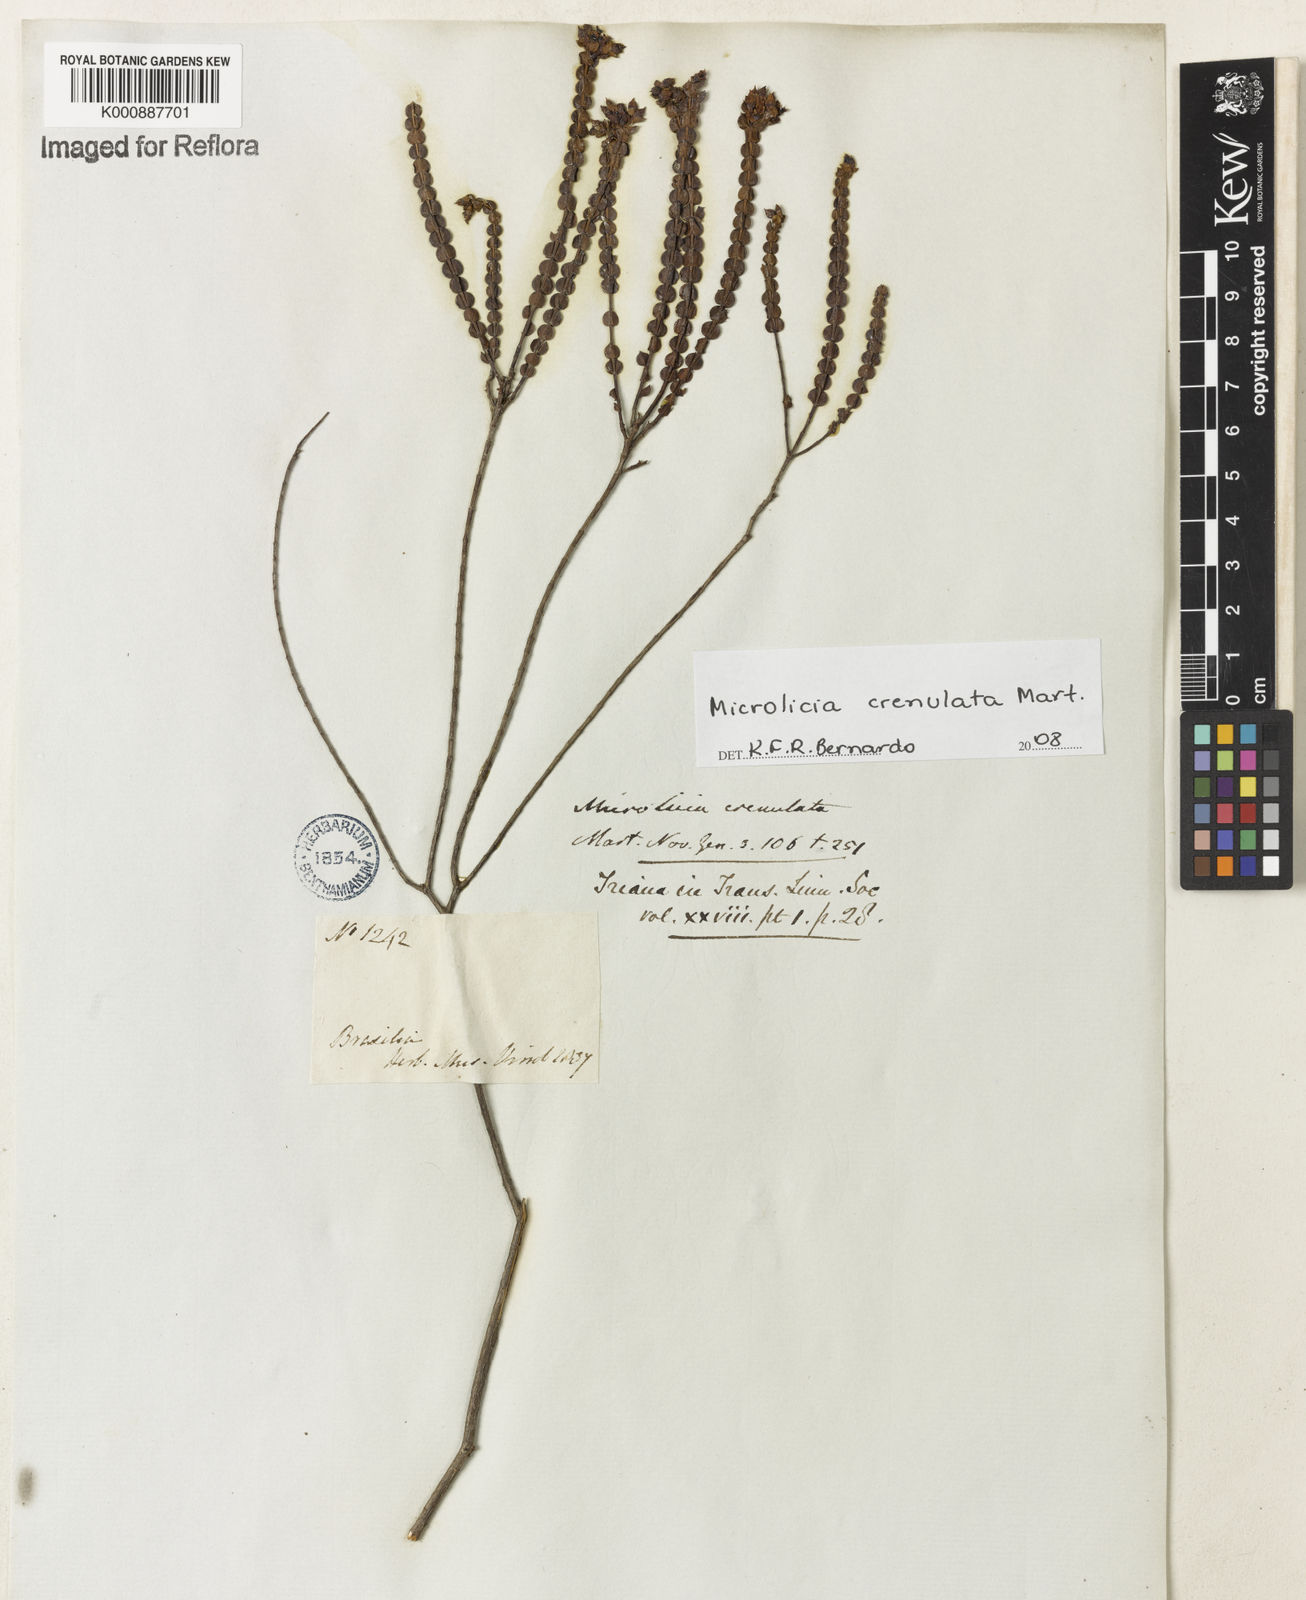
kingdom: Plantae
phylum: Tracheophyta
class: Magnoliopsida
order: Myrtales
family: Melastomataceae
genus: Microlicia
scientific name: Microlicia crenulata
